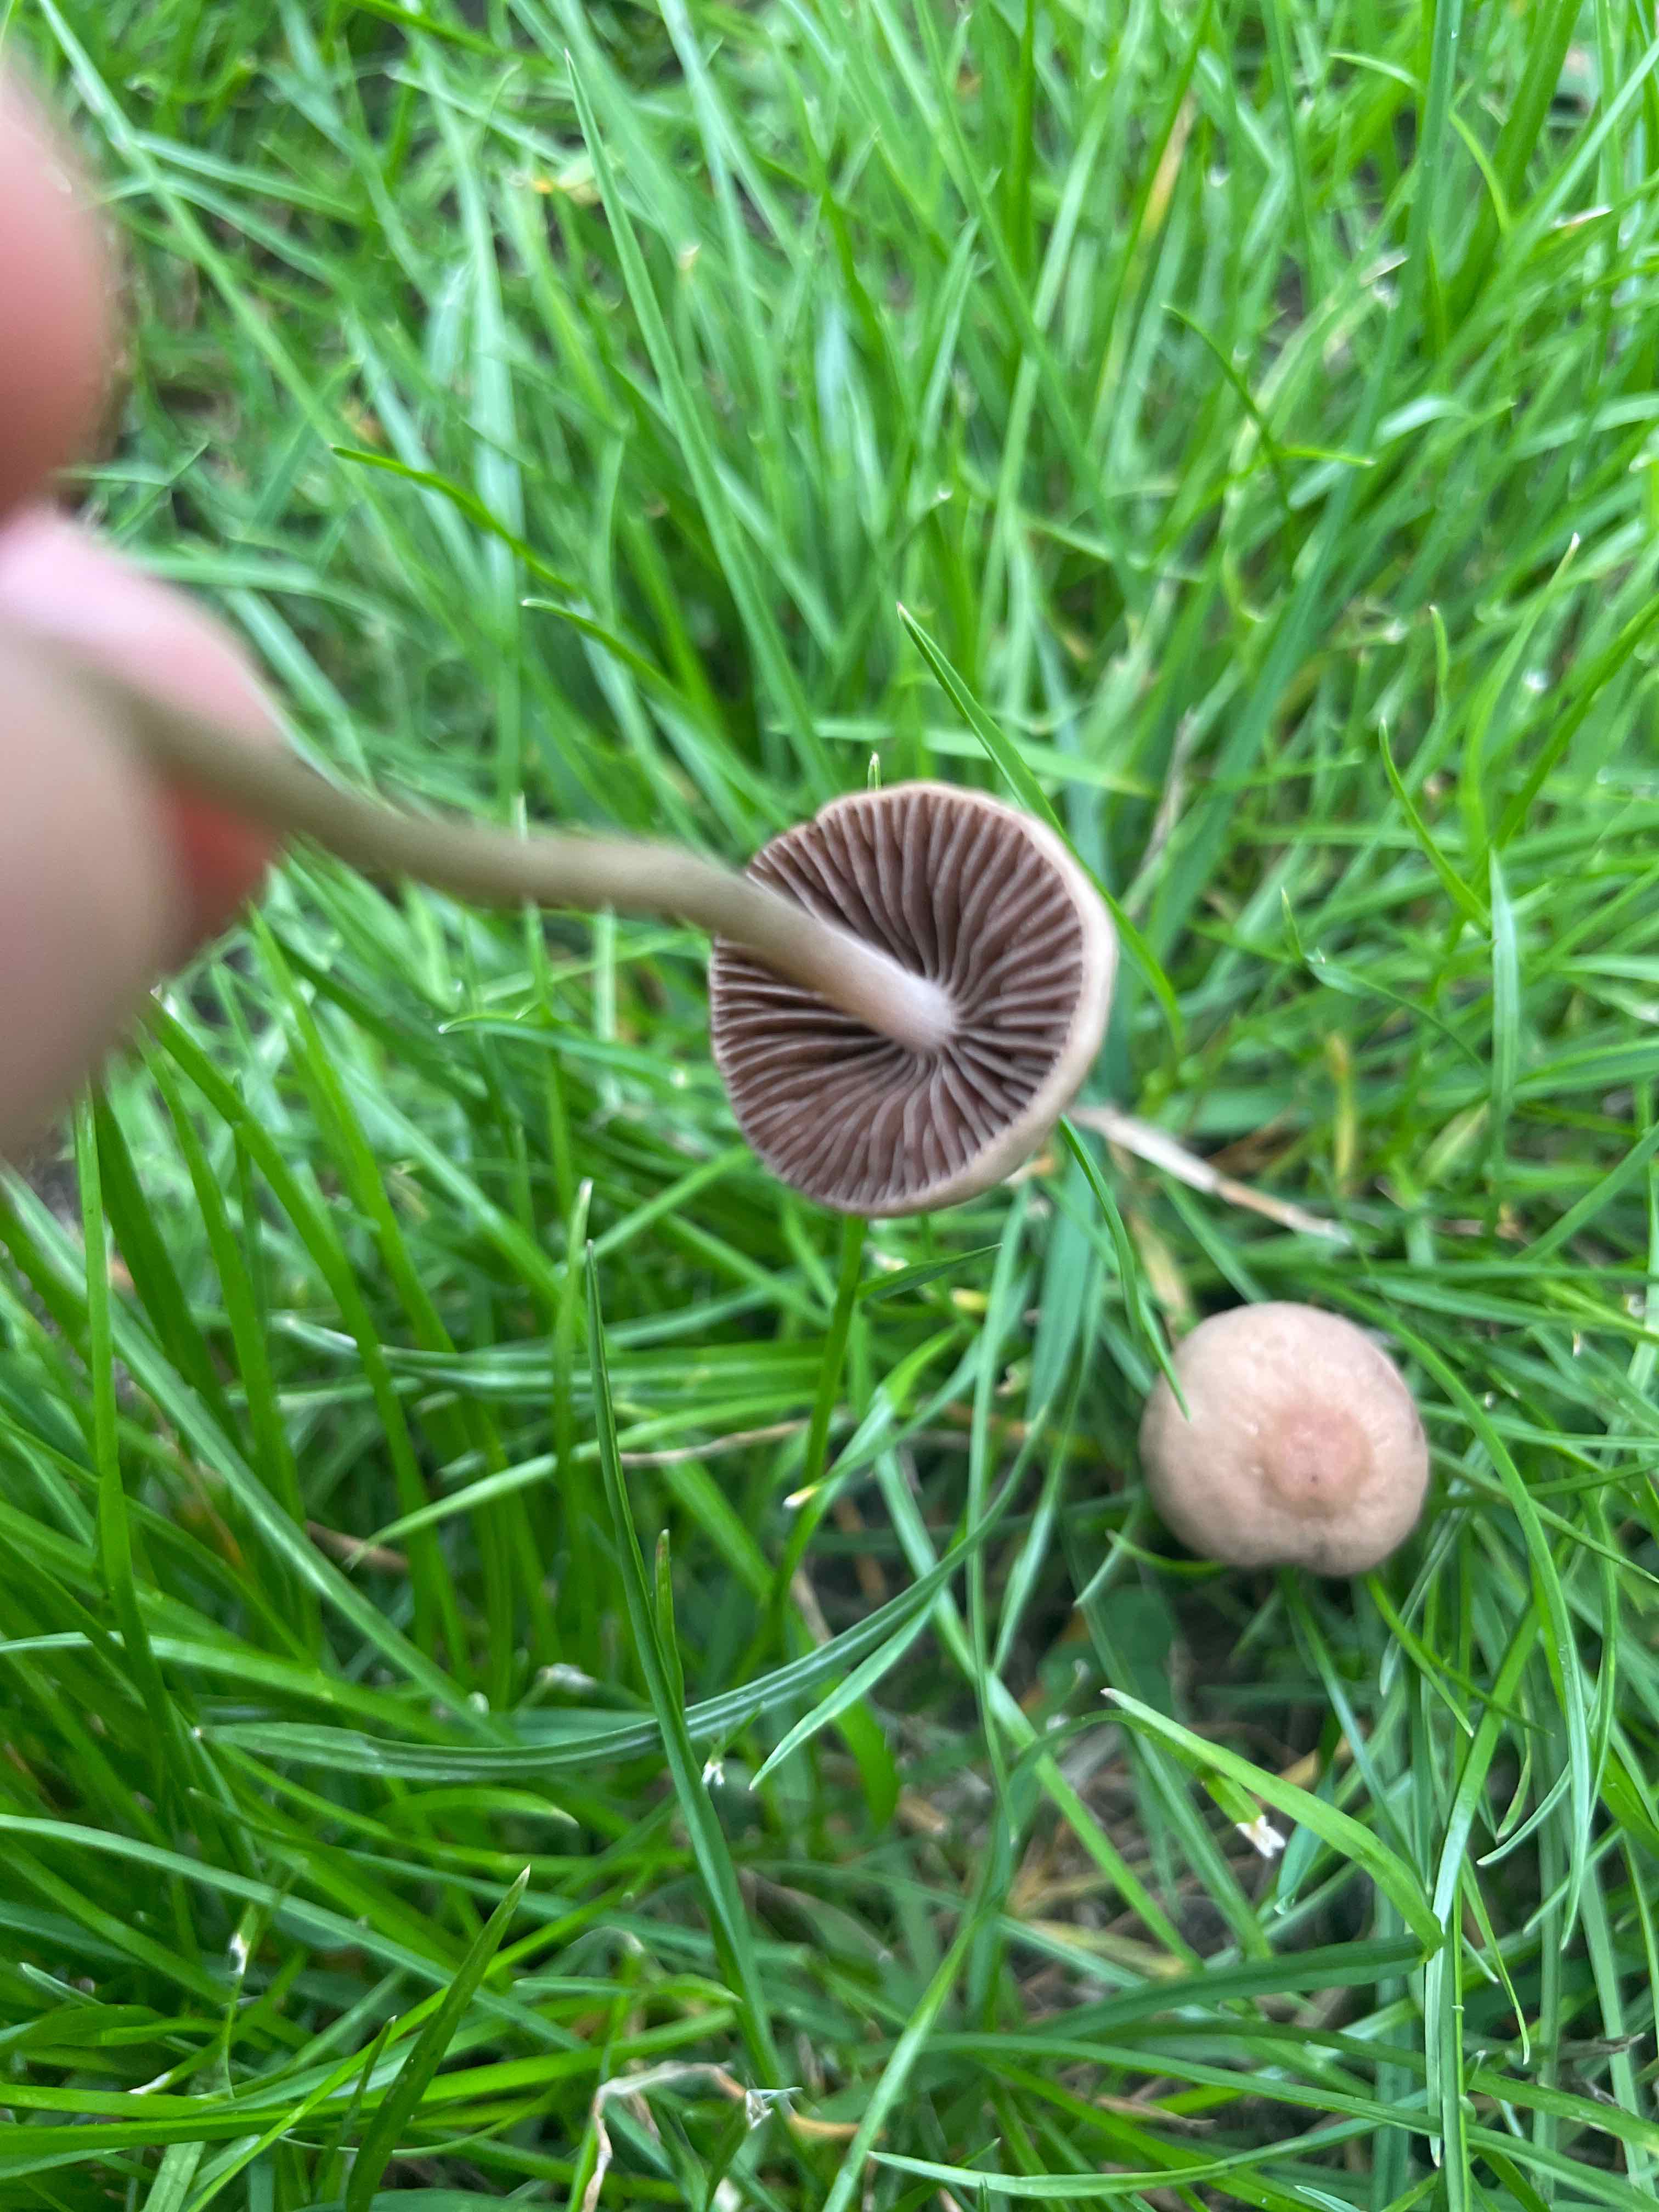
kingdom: Fungi
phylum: Basidiomycota
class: Agaricomycetes
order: Agaricales
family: Bolbitiaceae
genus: Panaeolina
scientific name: Panaeolina foenisecii
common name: høslætsvamp
